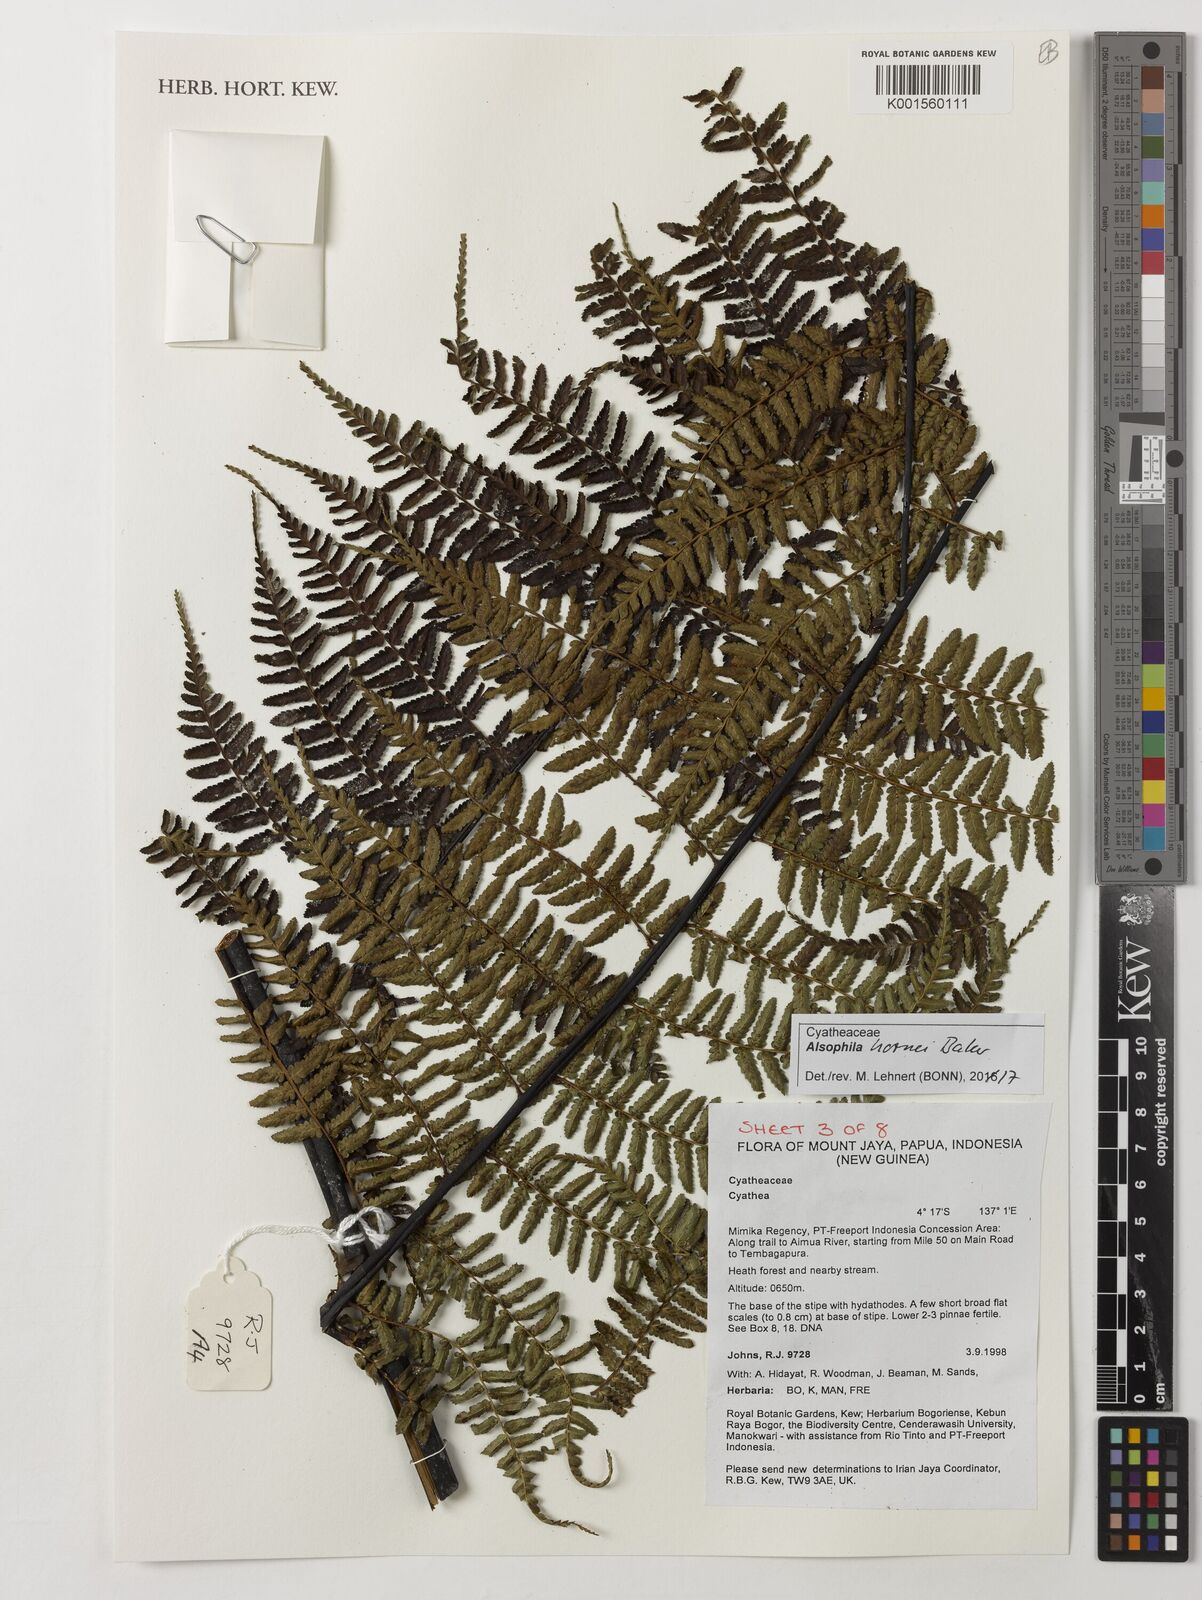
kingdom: Plantae
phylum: Tracheophyta
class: Polypodiopsida
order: Cyatheales
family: Cyatheaceae
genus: Gymnosphaera
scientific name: Gymnosphaera hornei
